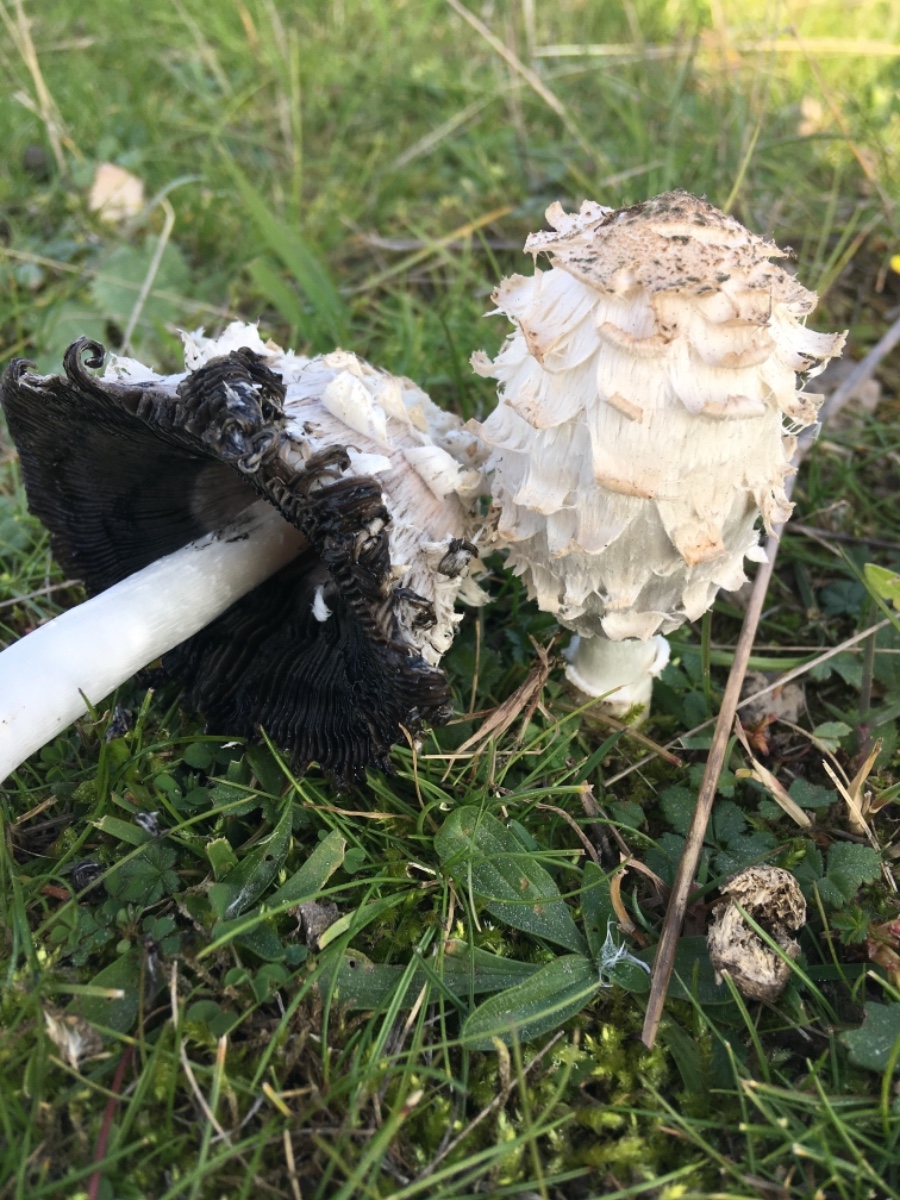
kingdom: Fungi
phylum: Basidiomycota
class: Agaricomycetes
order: Agaricales
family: Agaricaceae
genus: Coprinus
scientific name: Coprinus comatus
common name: stor parykhat
